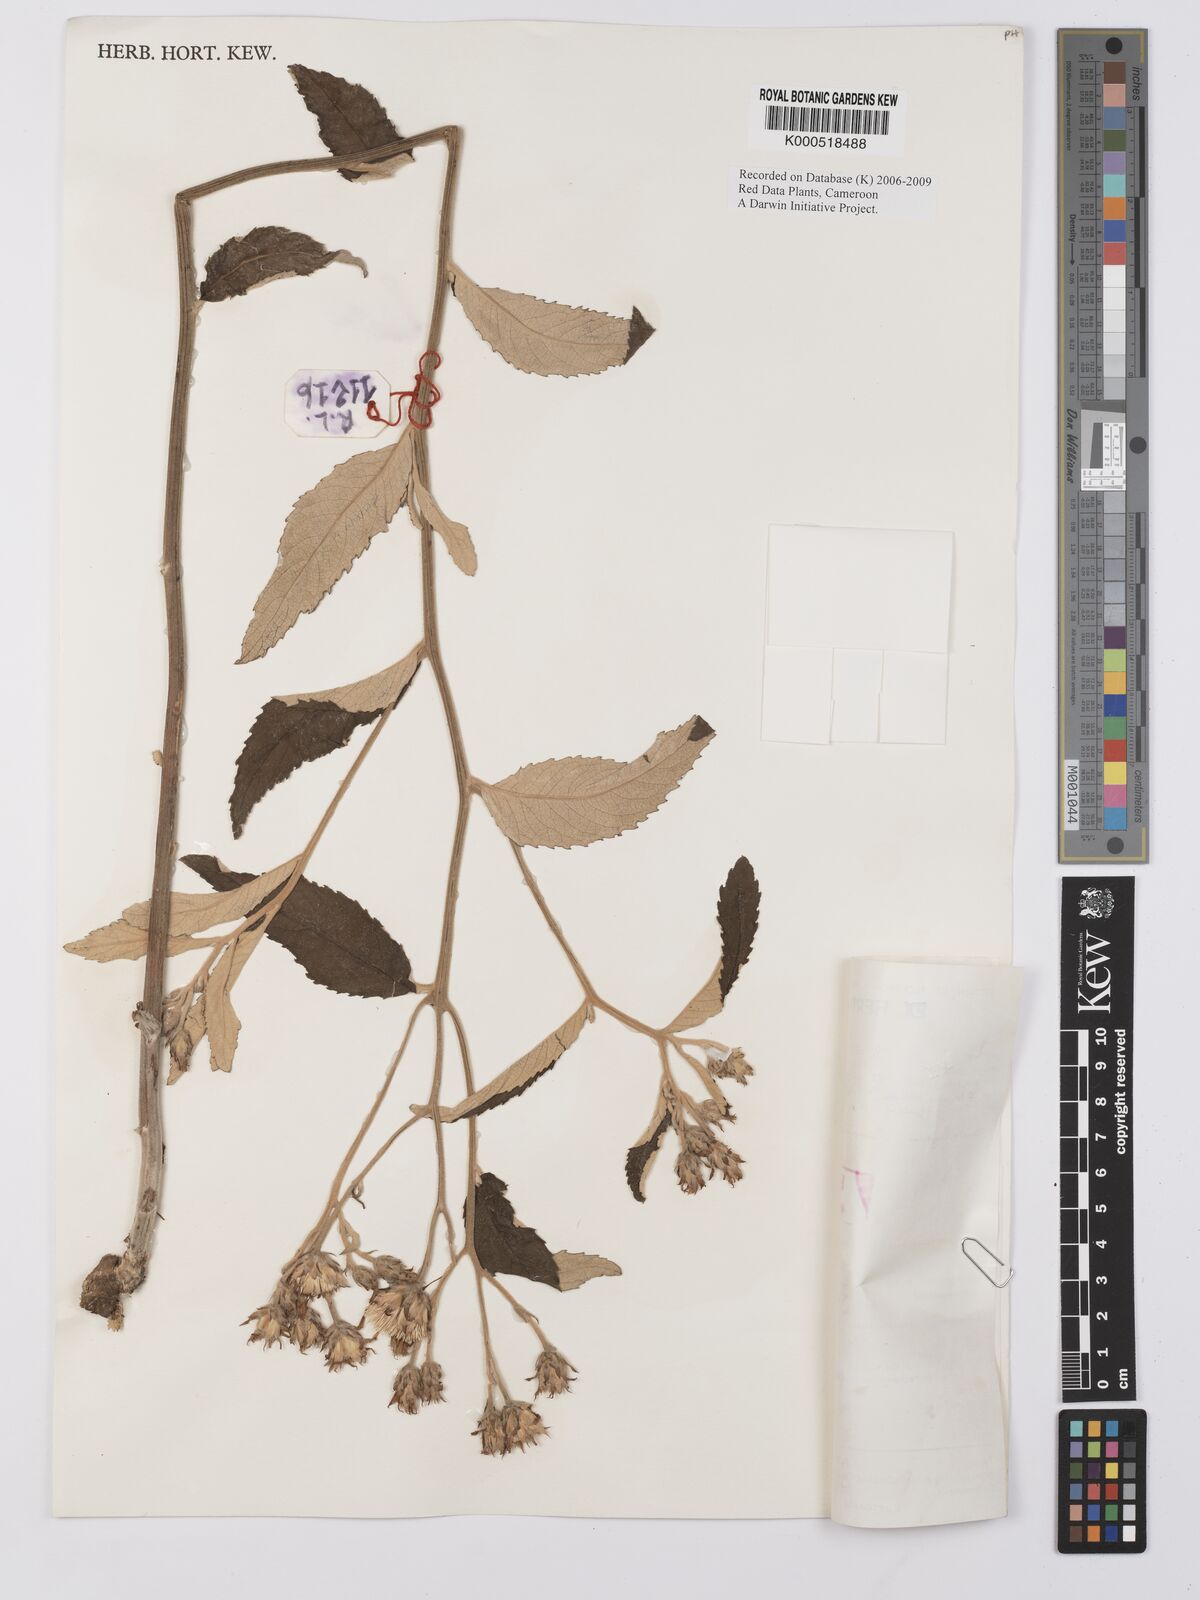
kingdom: Plantae
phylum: Tracheophyta
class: Magnoliopsida
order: Asterales
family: Asteraceae
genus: Baccharoides
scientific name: Baccharoides guineensis
